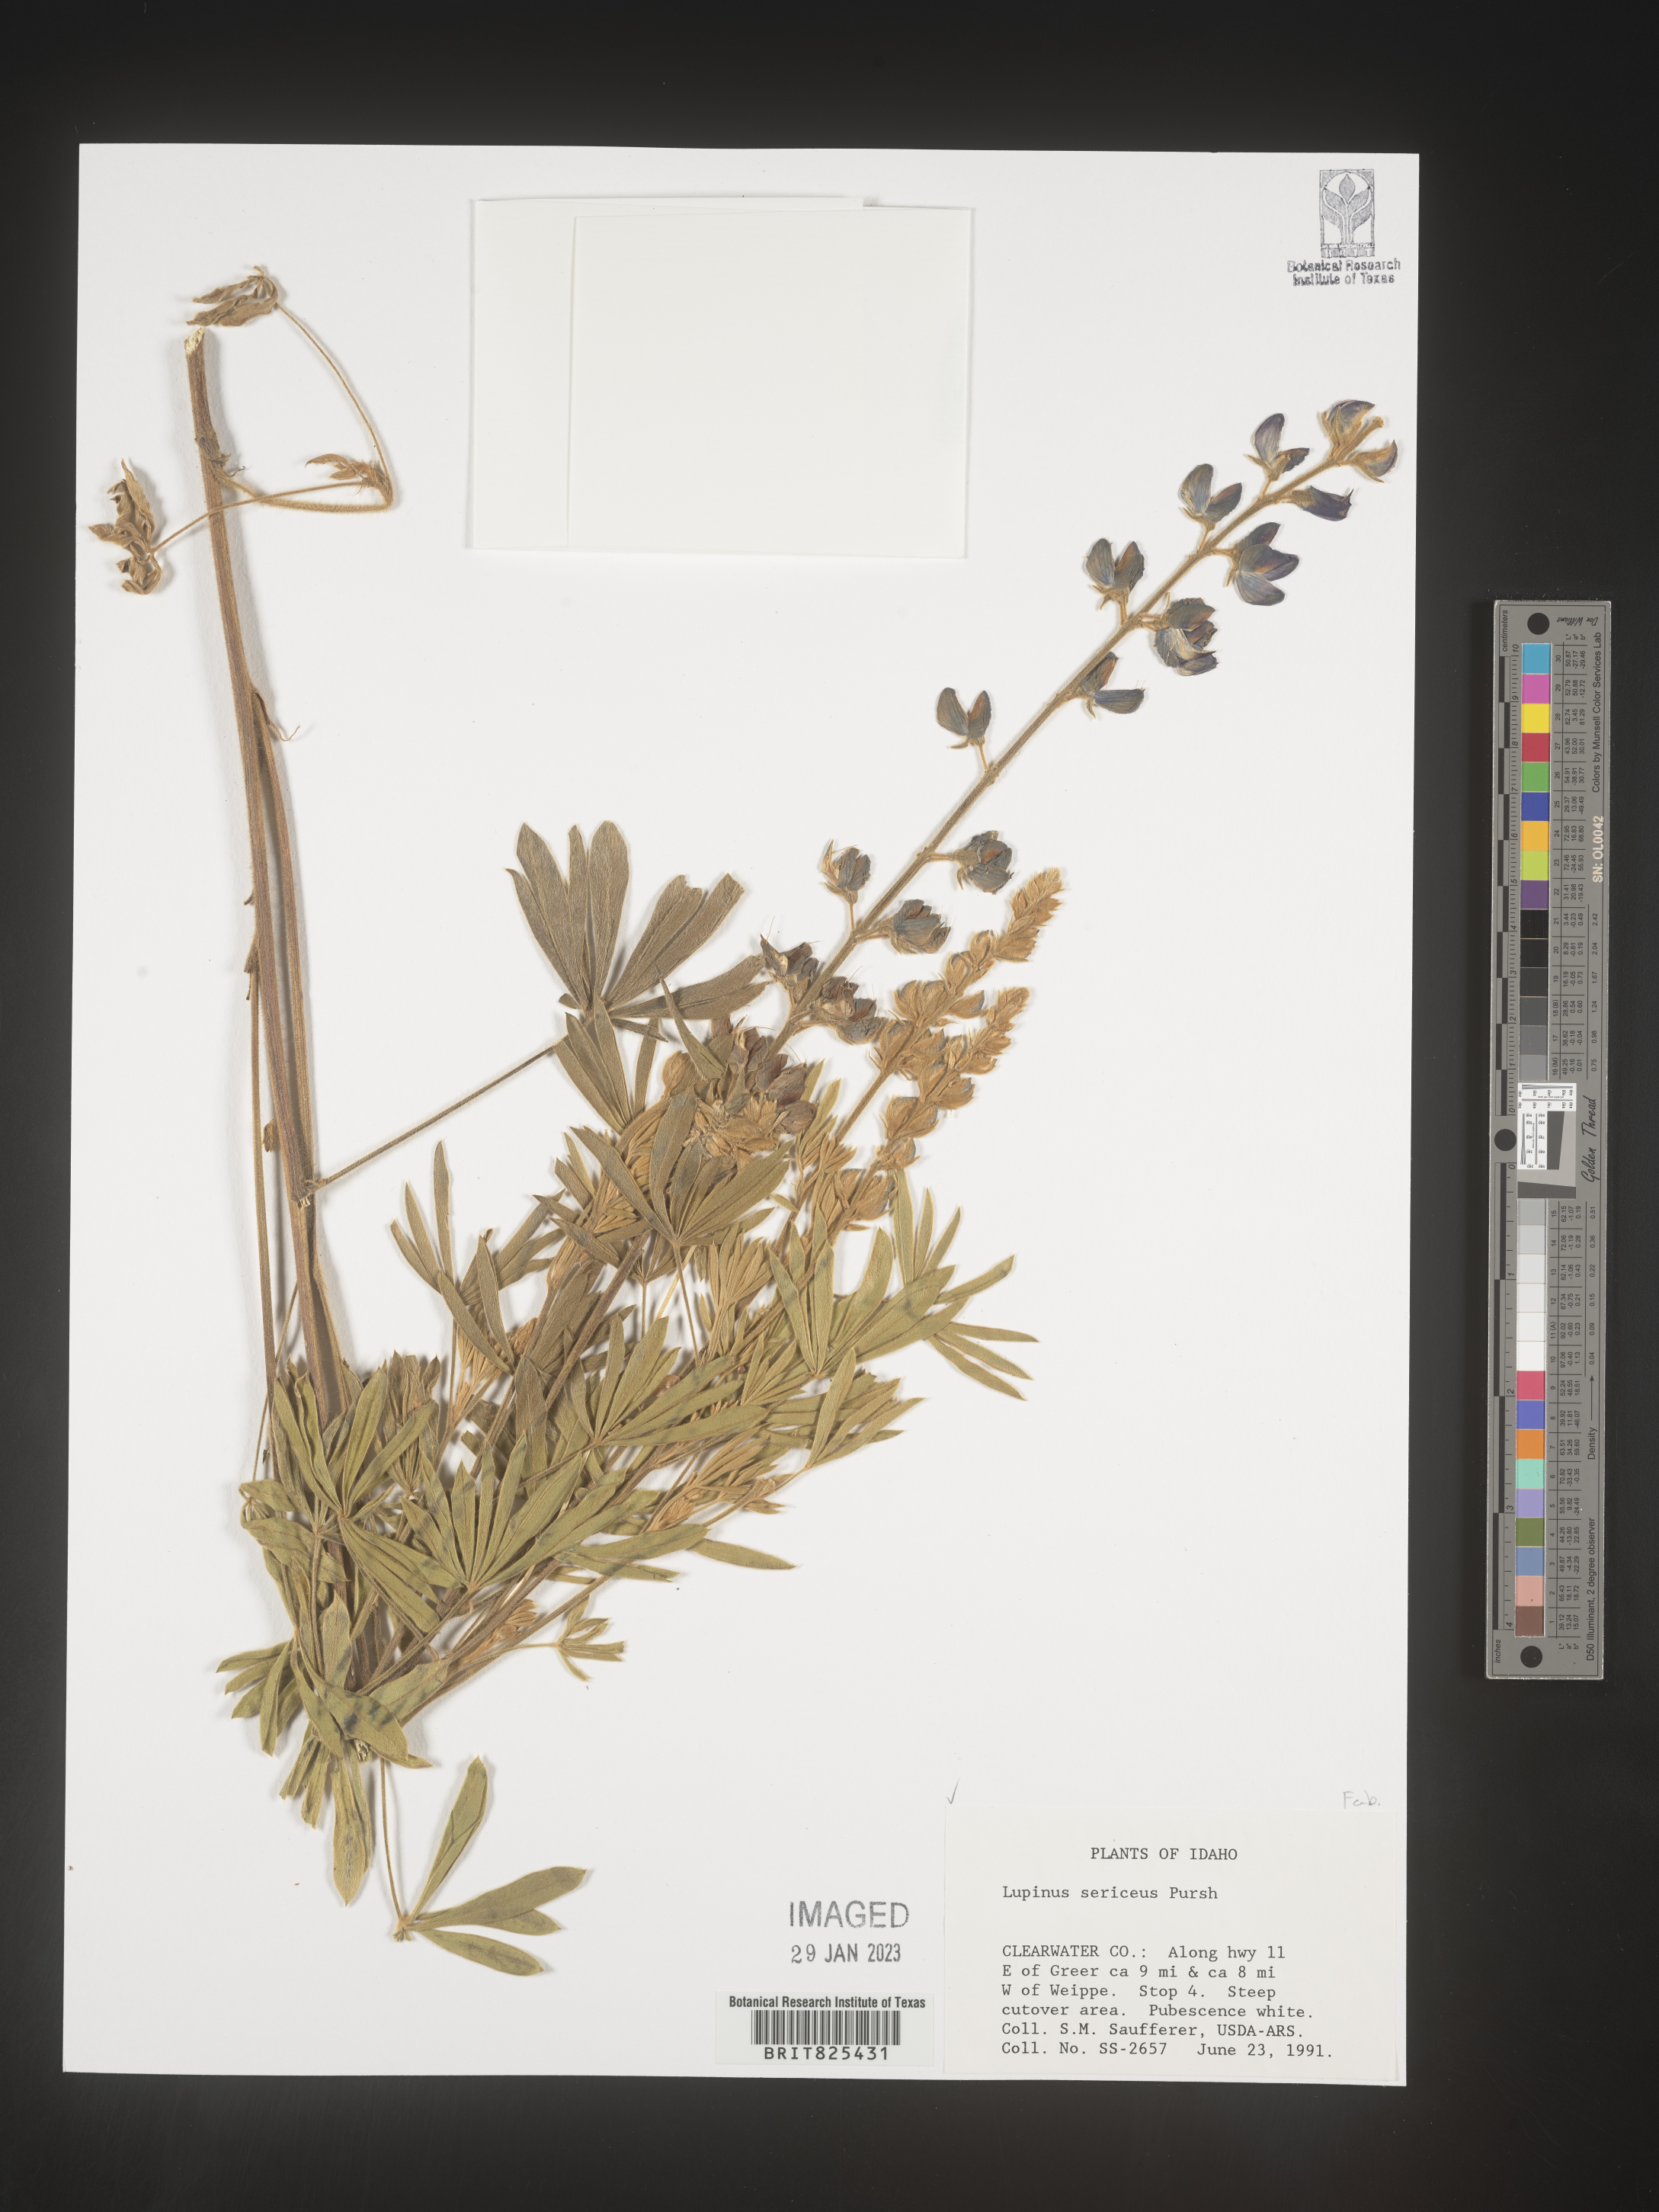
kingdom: Plantae
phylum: Tracheophyta
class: Magnoliopsida
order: Fabales
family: Fabaceae
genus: Lupinus
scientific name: Lupinus sericeus
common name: Silky lupine
